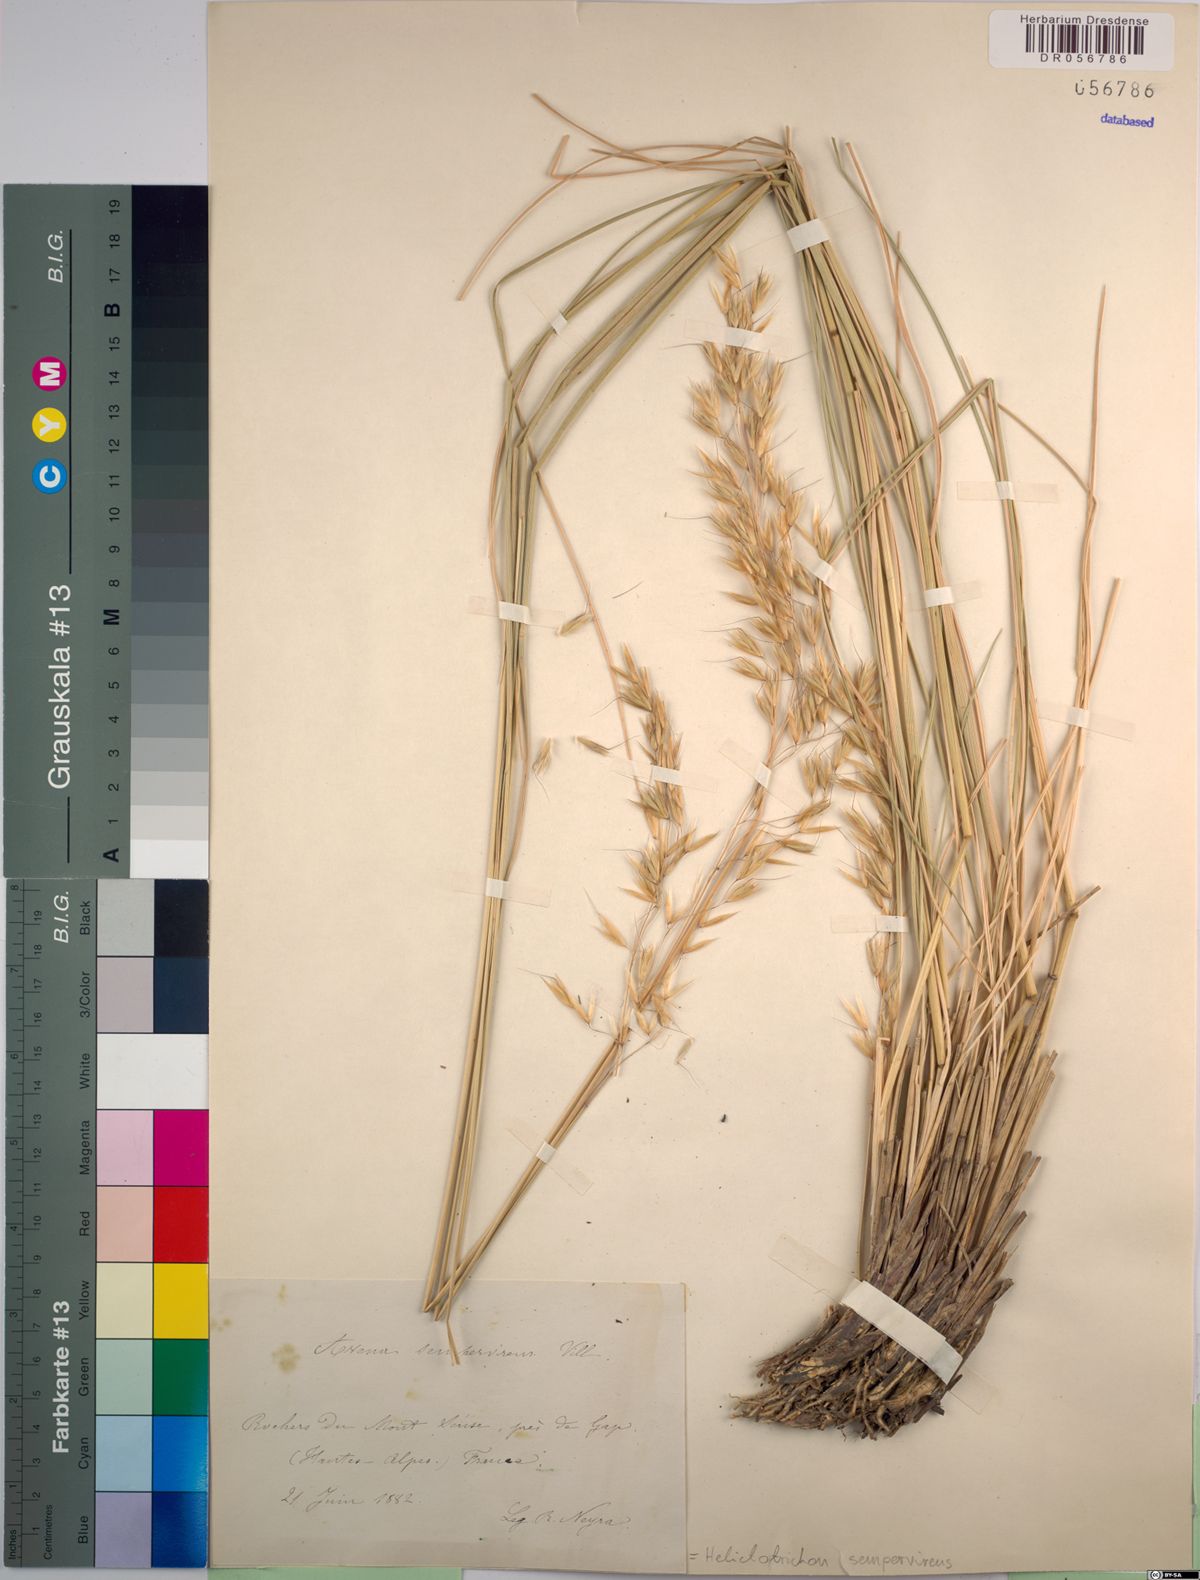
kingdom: Plantae
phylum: Tracheophyta
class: Liliopsida
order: Poales
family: Poaceae
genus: Helictotrichon
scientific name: Helictotrichon sempervirens
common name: Blue oat-grass
